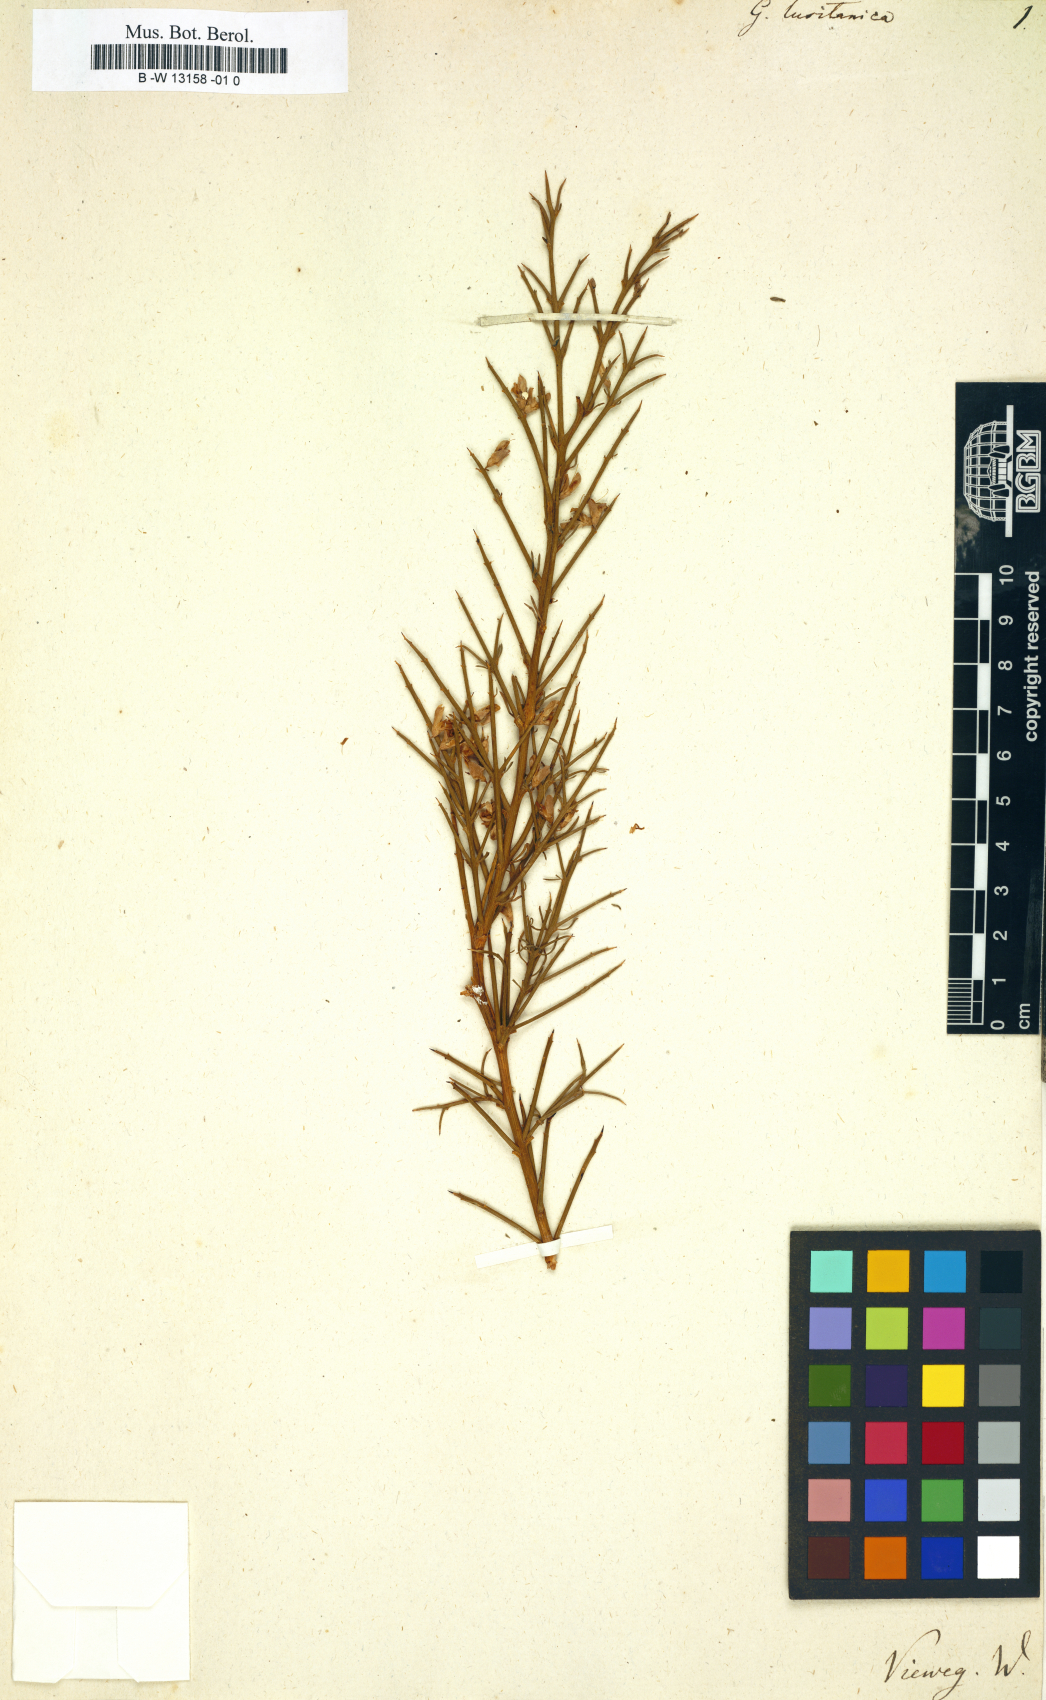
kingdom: Plantae
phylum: Tracheophyta
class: Magnoliopsida
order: Fabales
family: Fabaceae
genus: Echinospartum
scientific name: Echinospartum lusitanicum
